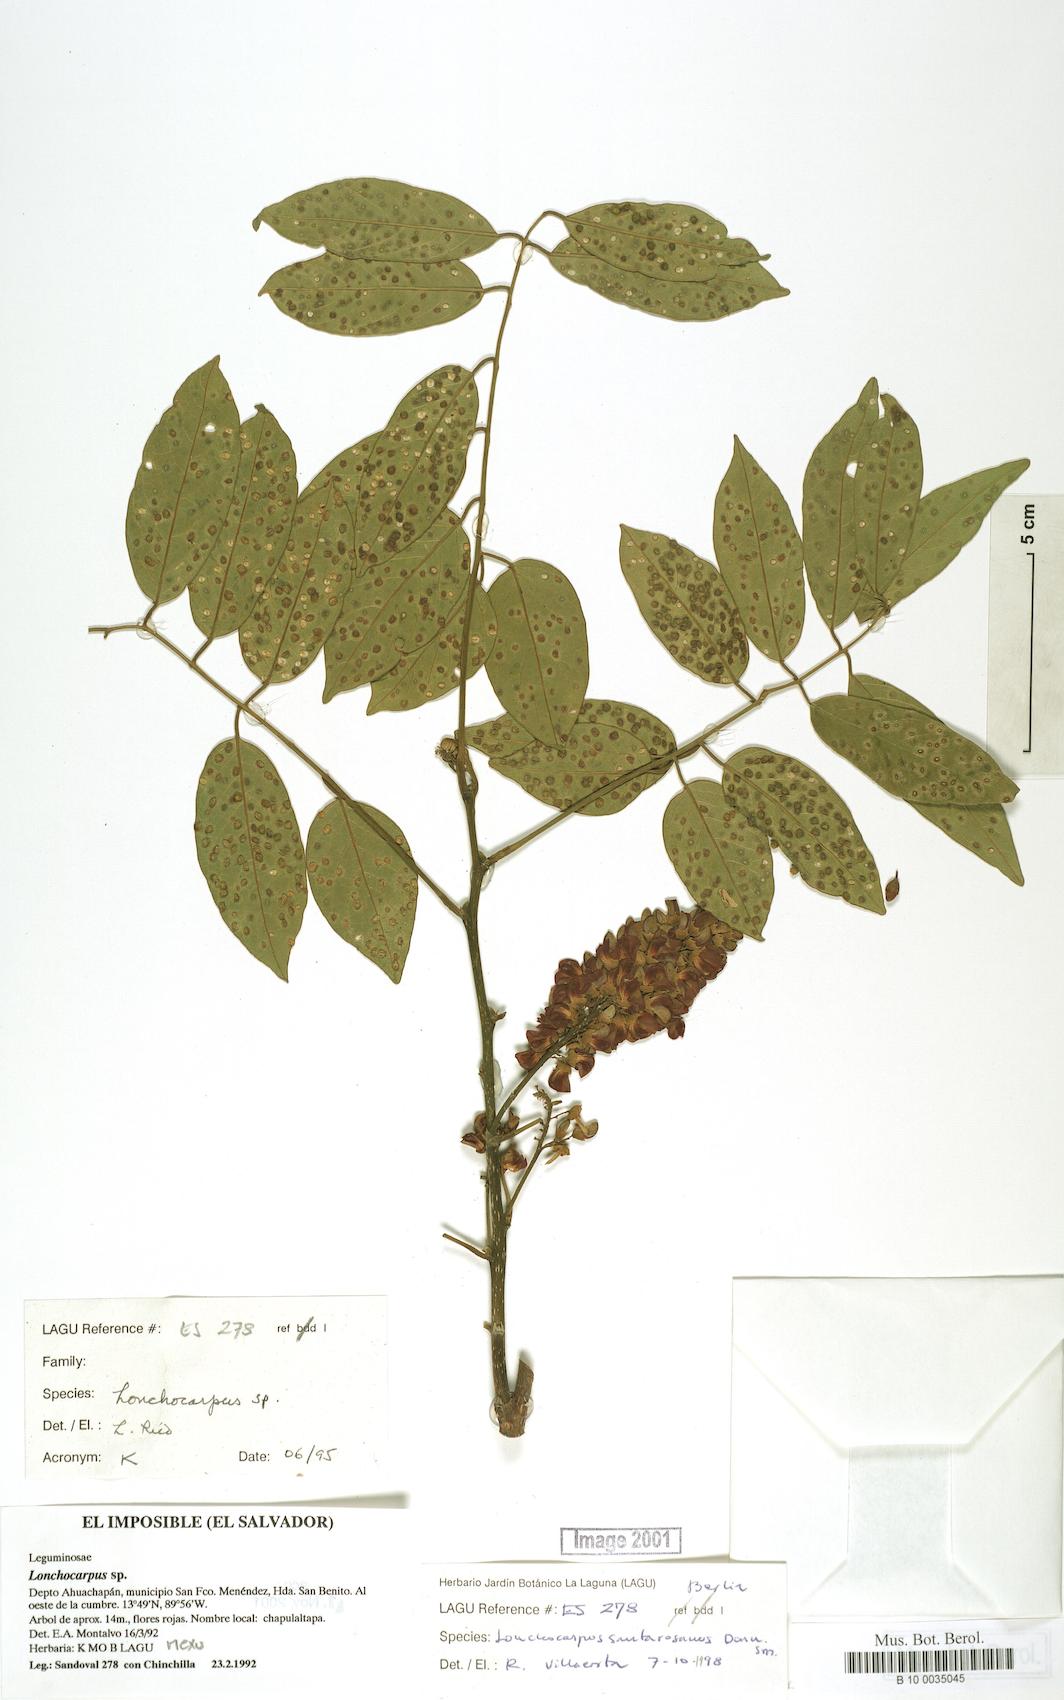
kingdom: Plantae
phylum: Tracheophyta
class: Magnoliopsida
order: Fabales
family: Fabaceae
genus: Lonchocarpus
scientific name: Lonchocarpus purpureus
